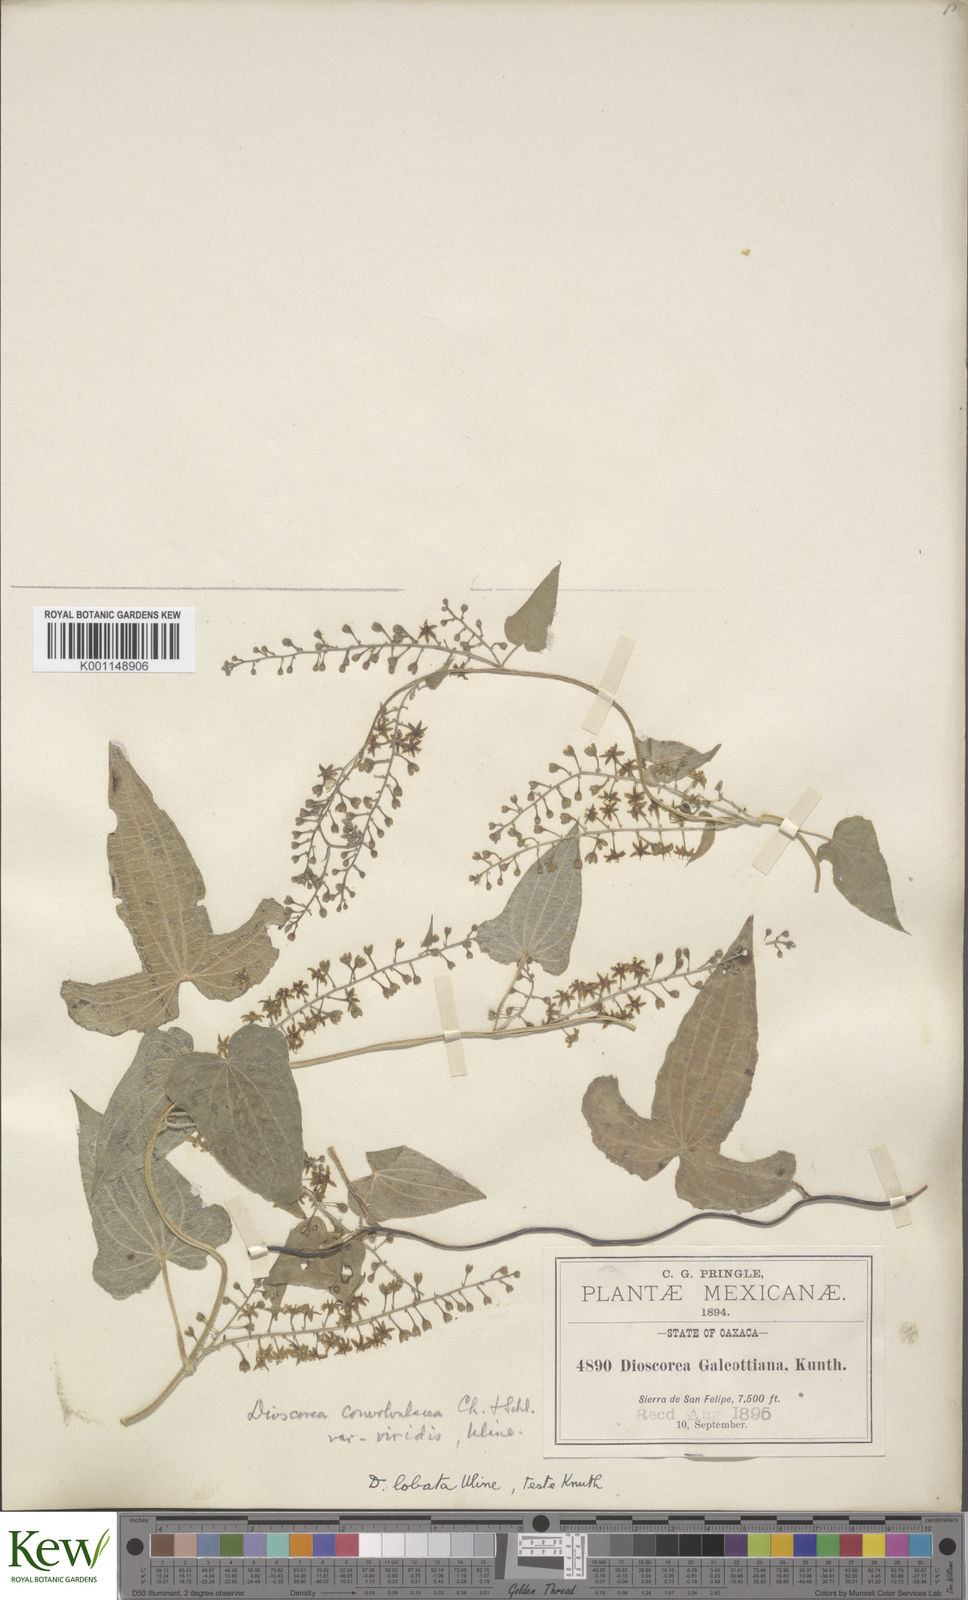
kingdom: Plantae
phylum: Tracheophyta
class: Liliopsida
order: Dioscoreales
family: Dioscoreaceae
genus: Dioscorea
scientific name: Dioscorea galeottiana
